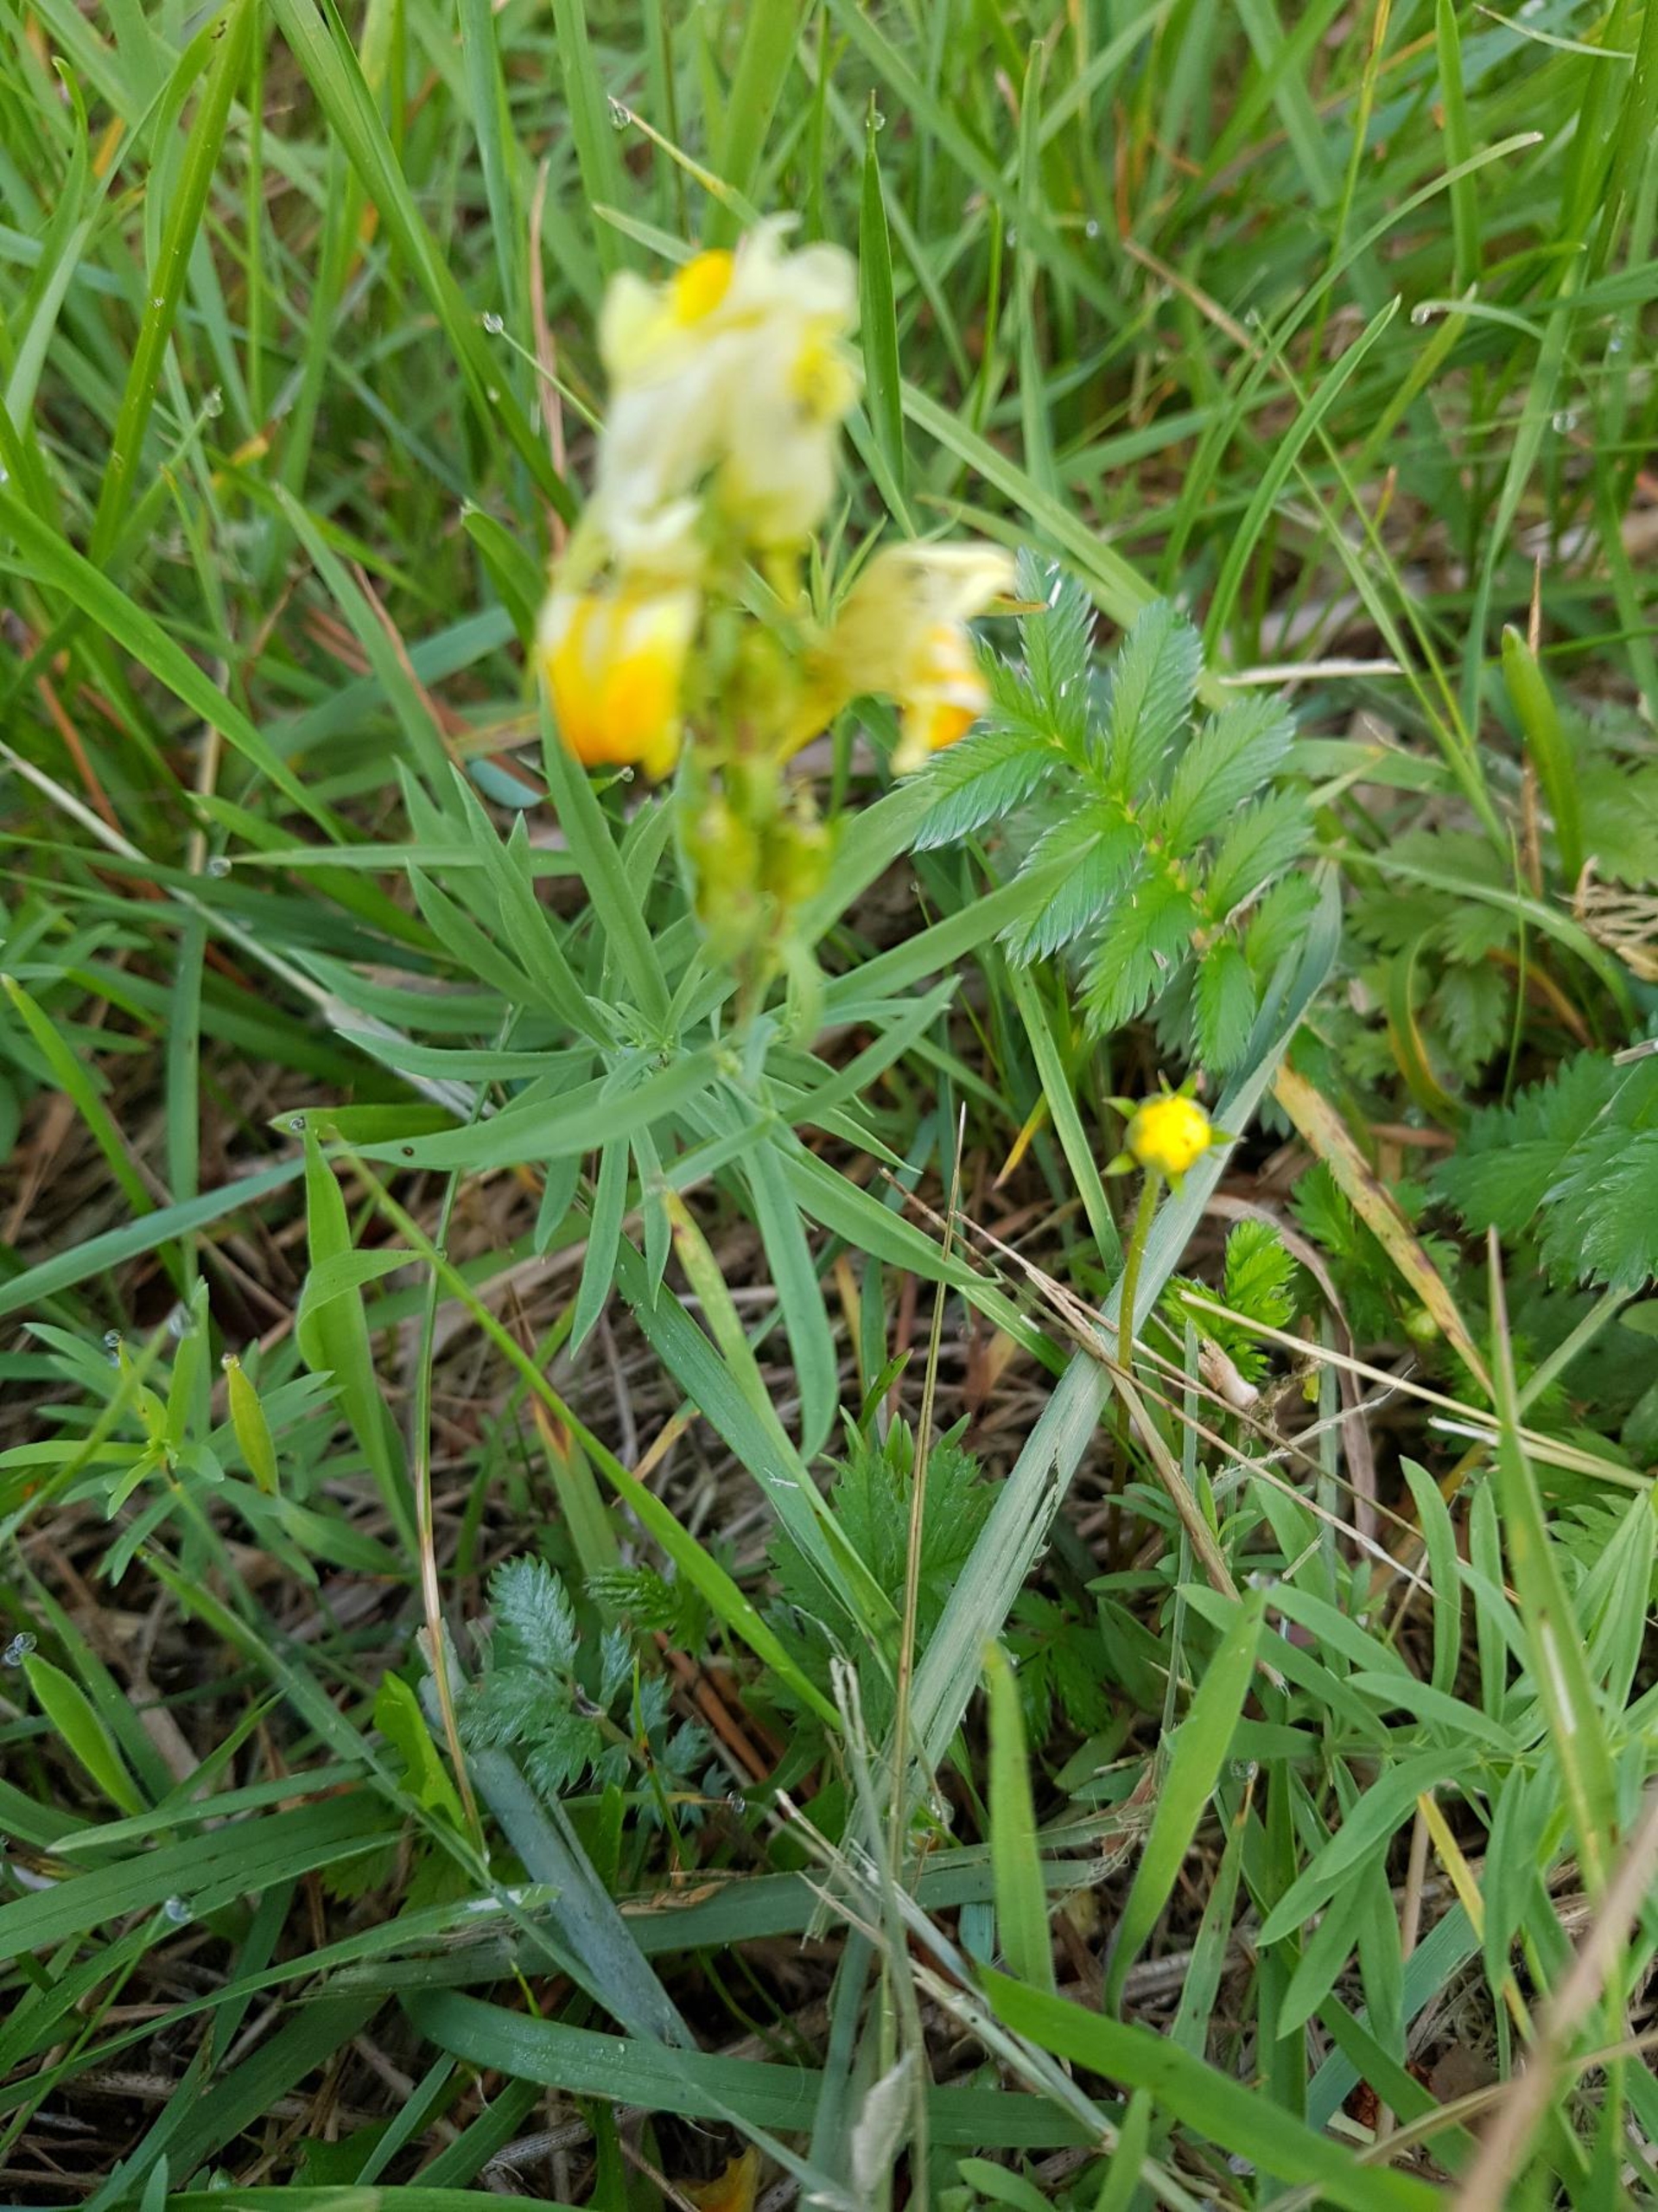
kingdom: Plantae
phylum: Tracheophyta
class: Magnoliopsida
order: Lamiales
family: Plantaginaceae
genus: Linaria
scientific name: Linaria vulgaris
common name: Almindelig torskemund
